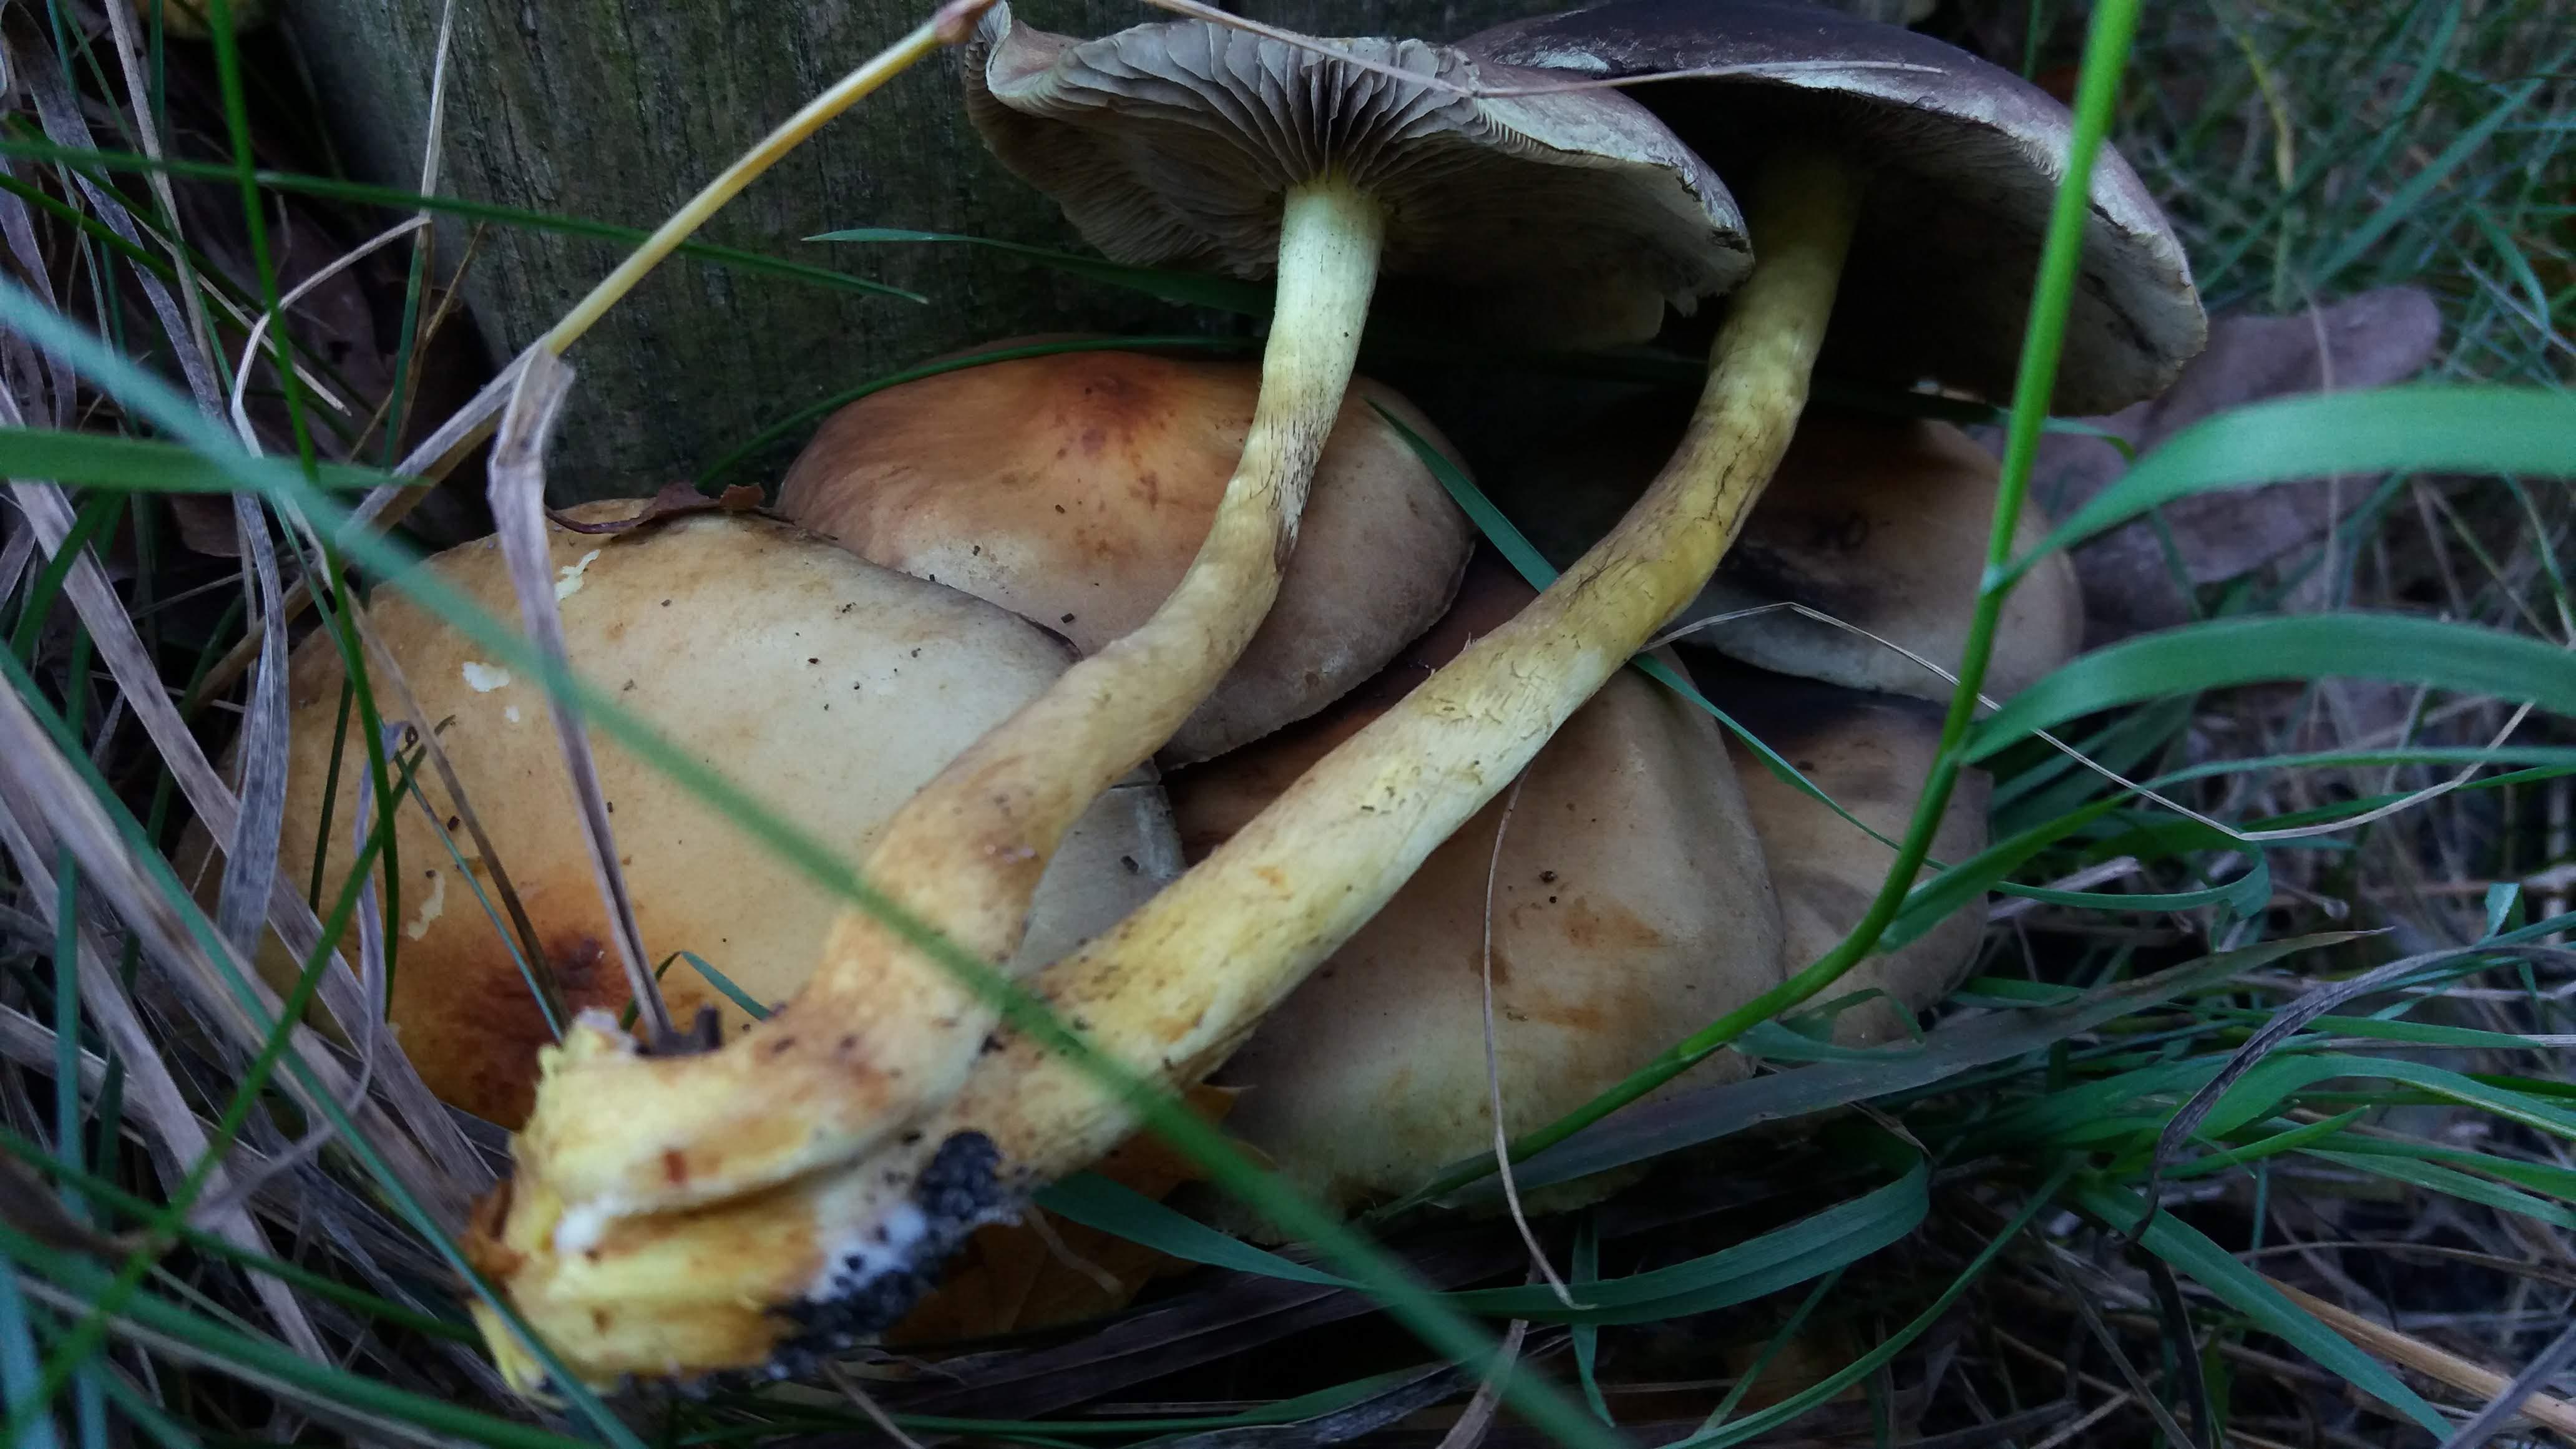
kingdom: Fungi
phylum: Basidiomycota
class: Agaricomycetes
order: Agaricales
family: Strophariaceae
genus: Hypholoma
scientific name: Hypholoma fasciculare
